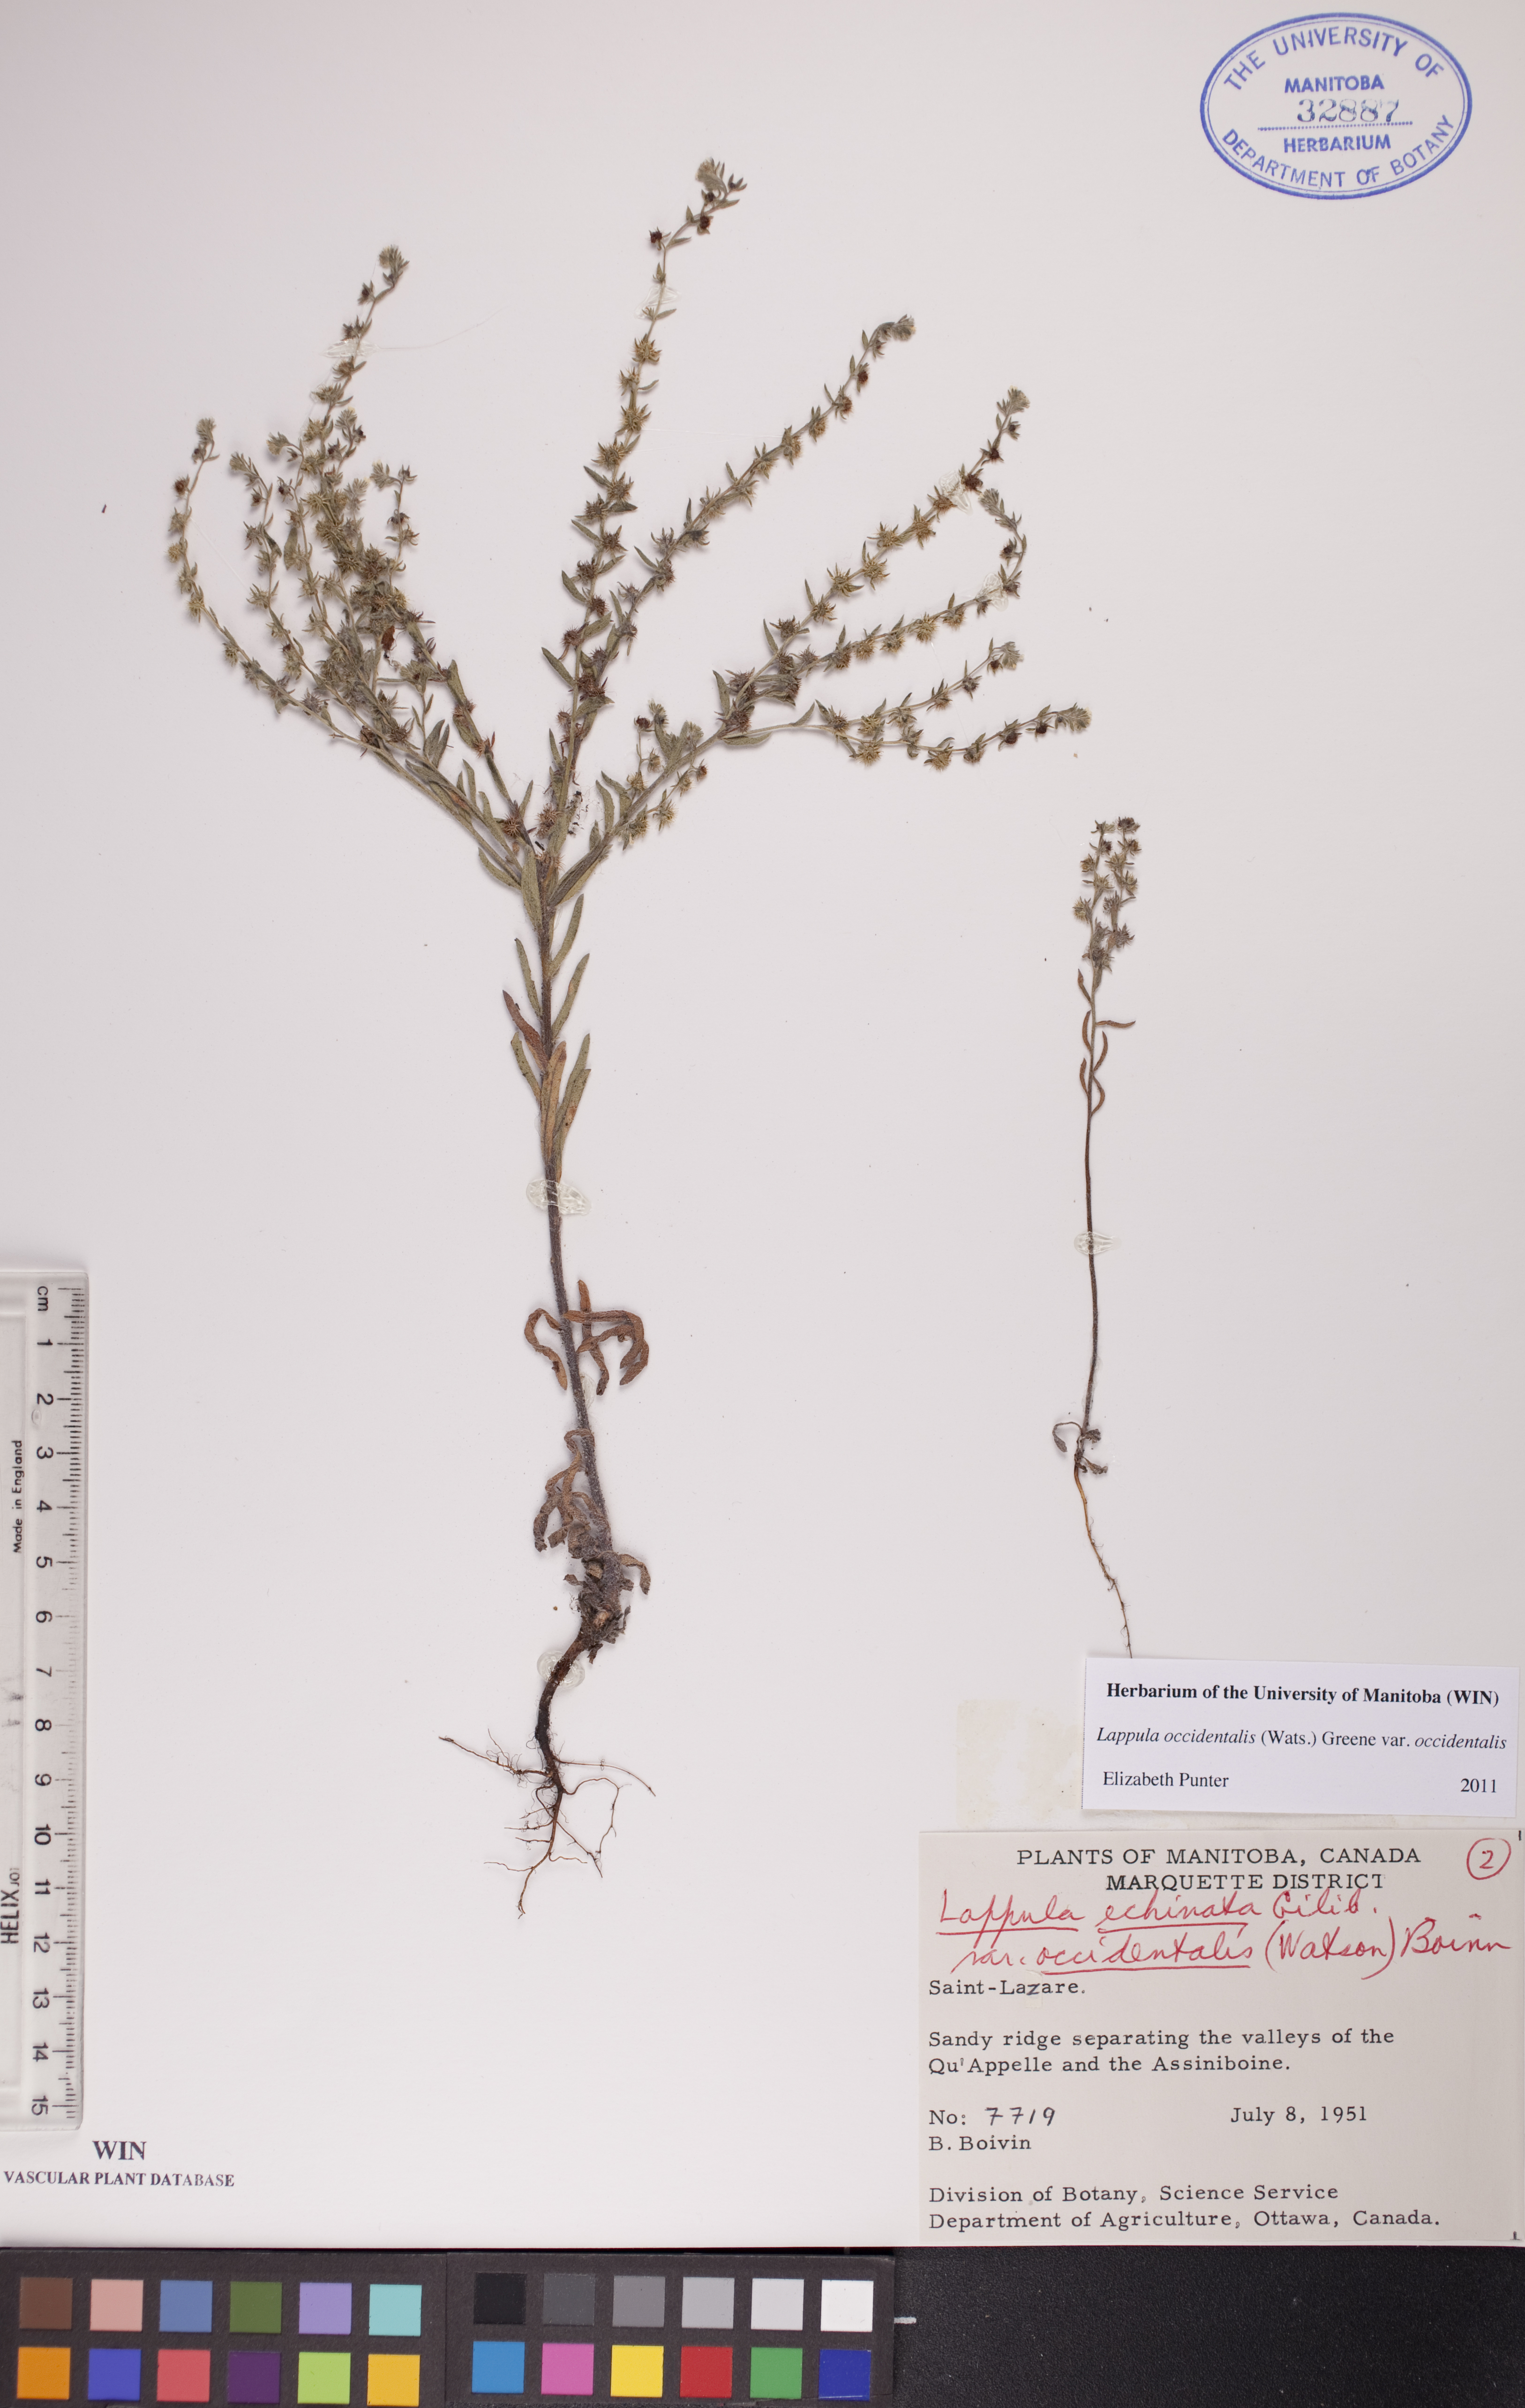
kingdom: Plantae
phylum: Tracheophyta
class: Magnoliopsida
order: Boraginales
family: Boraginaceae
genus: Lappula
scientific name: Lappula occidentalis
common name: Western stickseed
